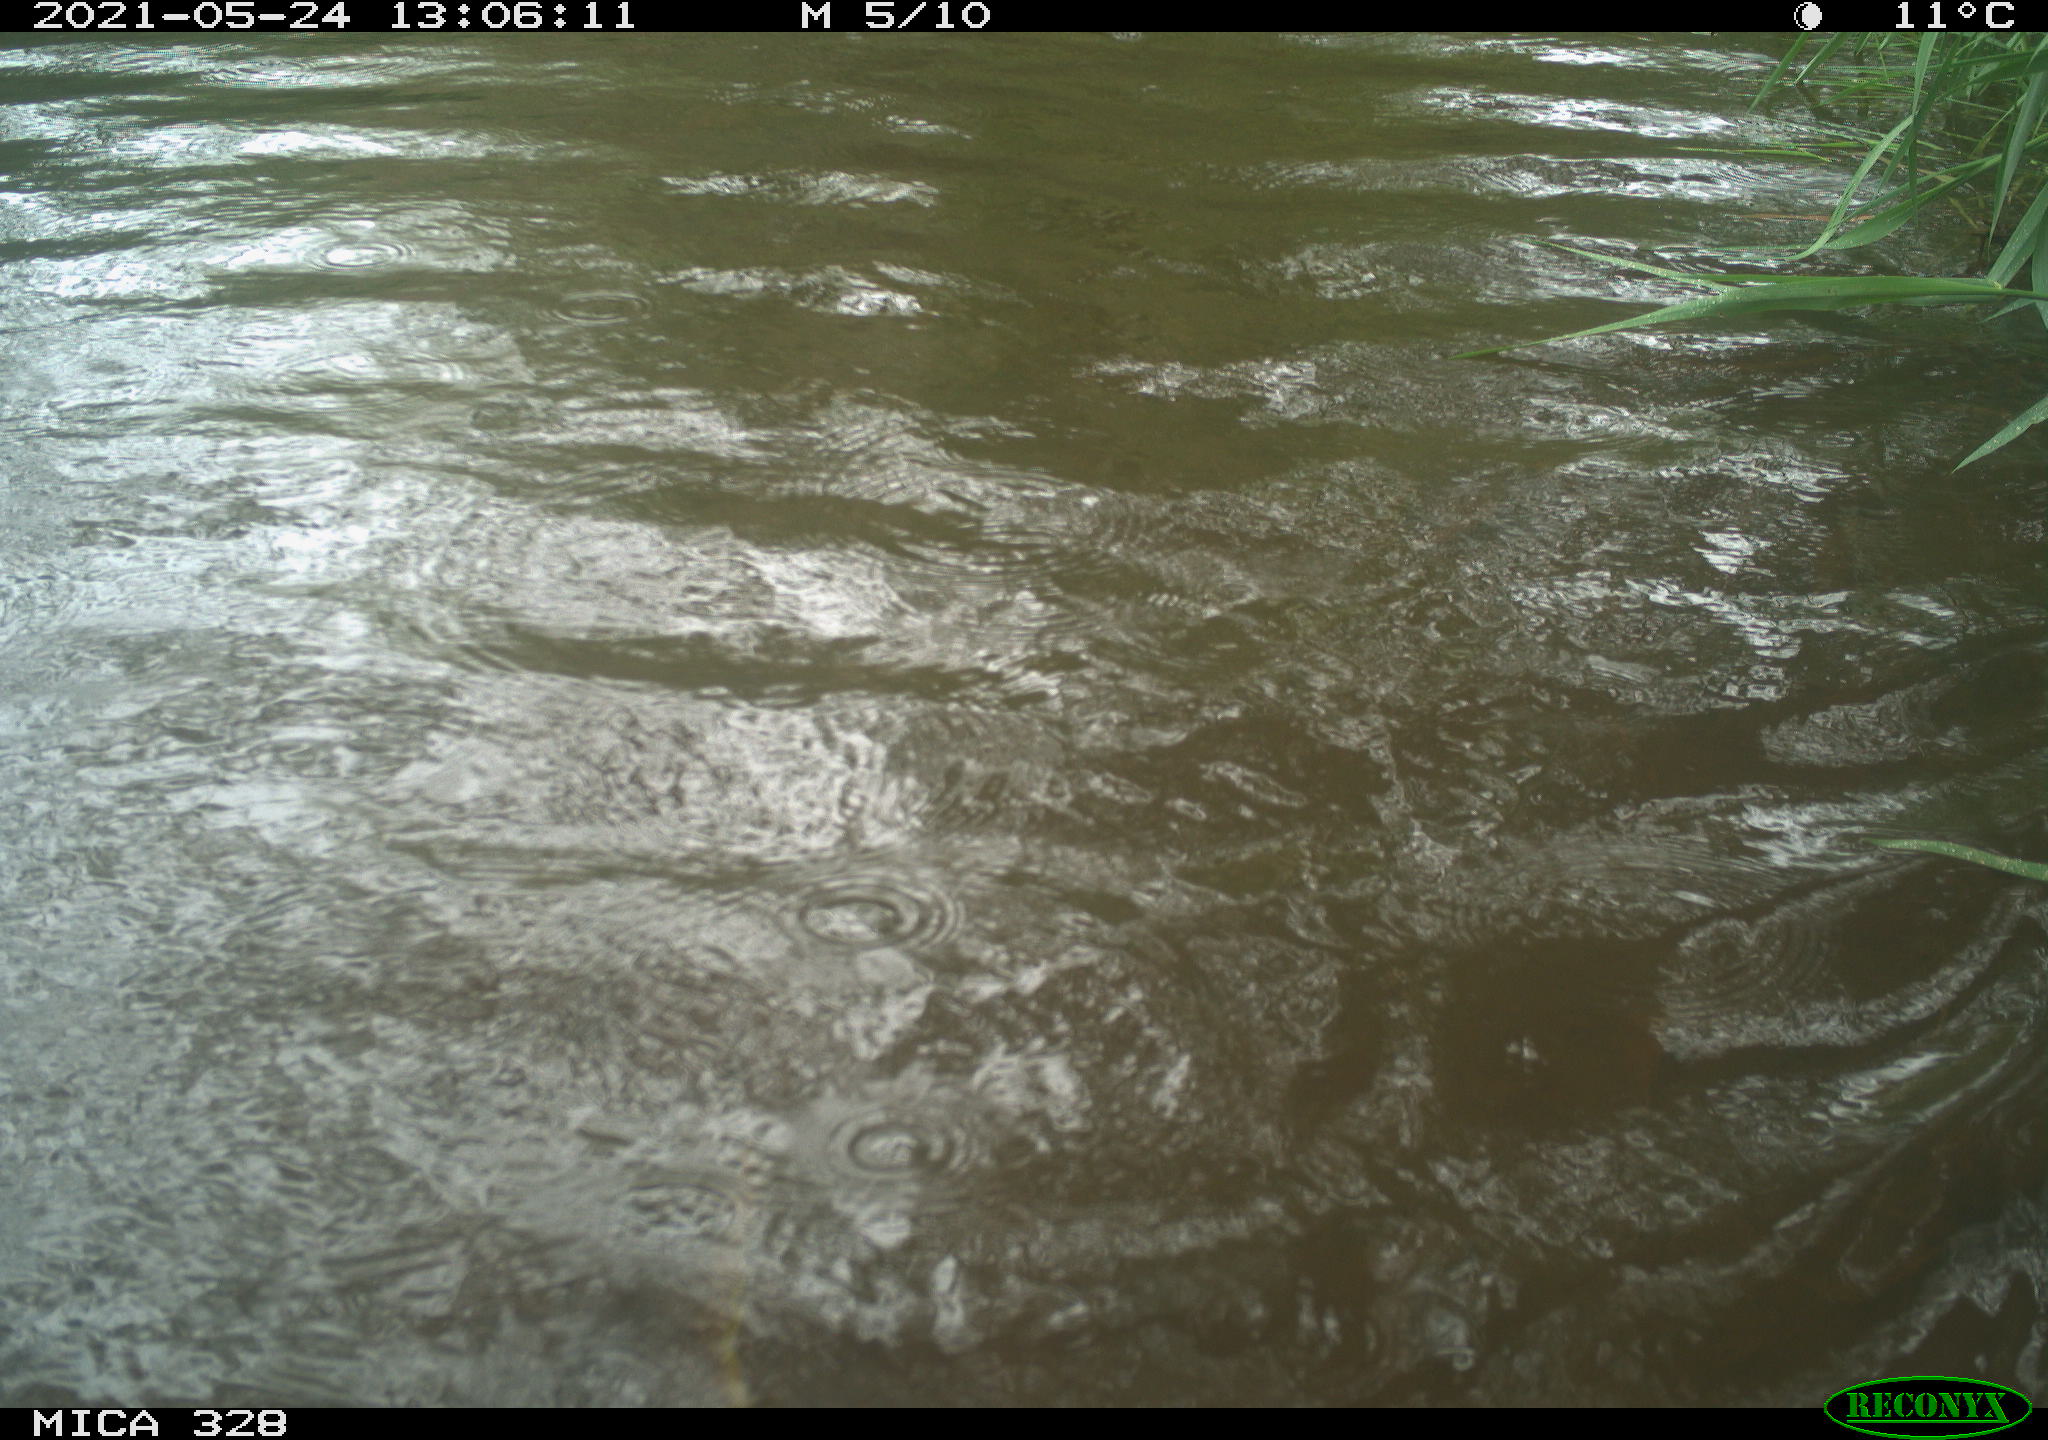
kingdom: Animalia
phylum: Chordata
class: Aves
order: Anseriformes
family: Anatidae
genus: Aix
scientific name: Aix galericulata
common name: Mandarin duck
